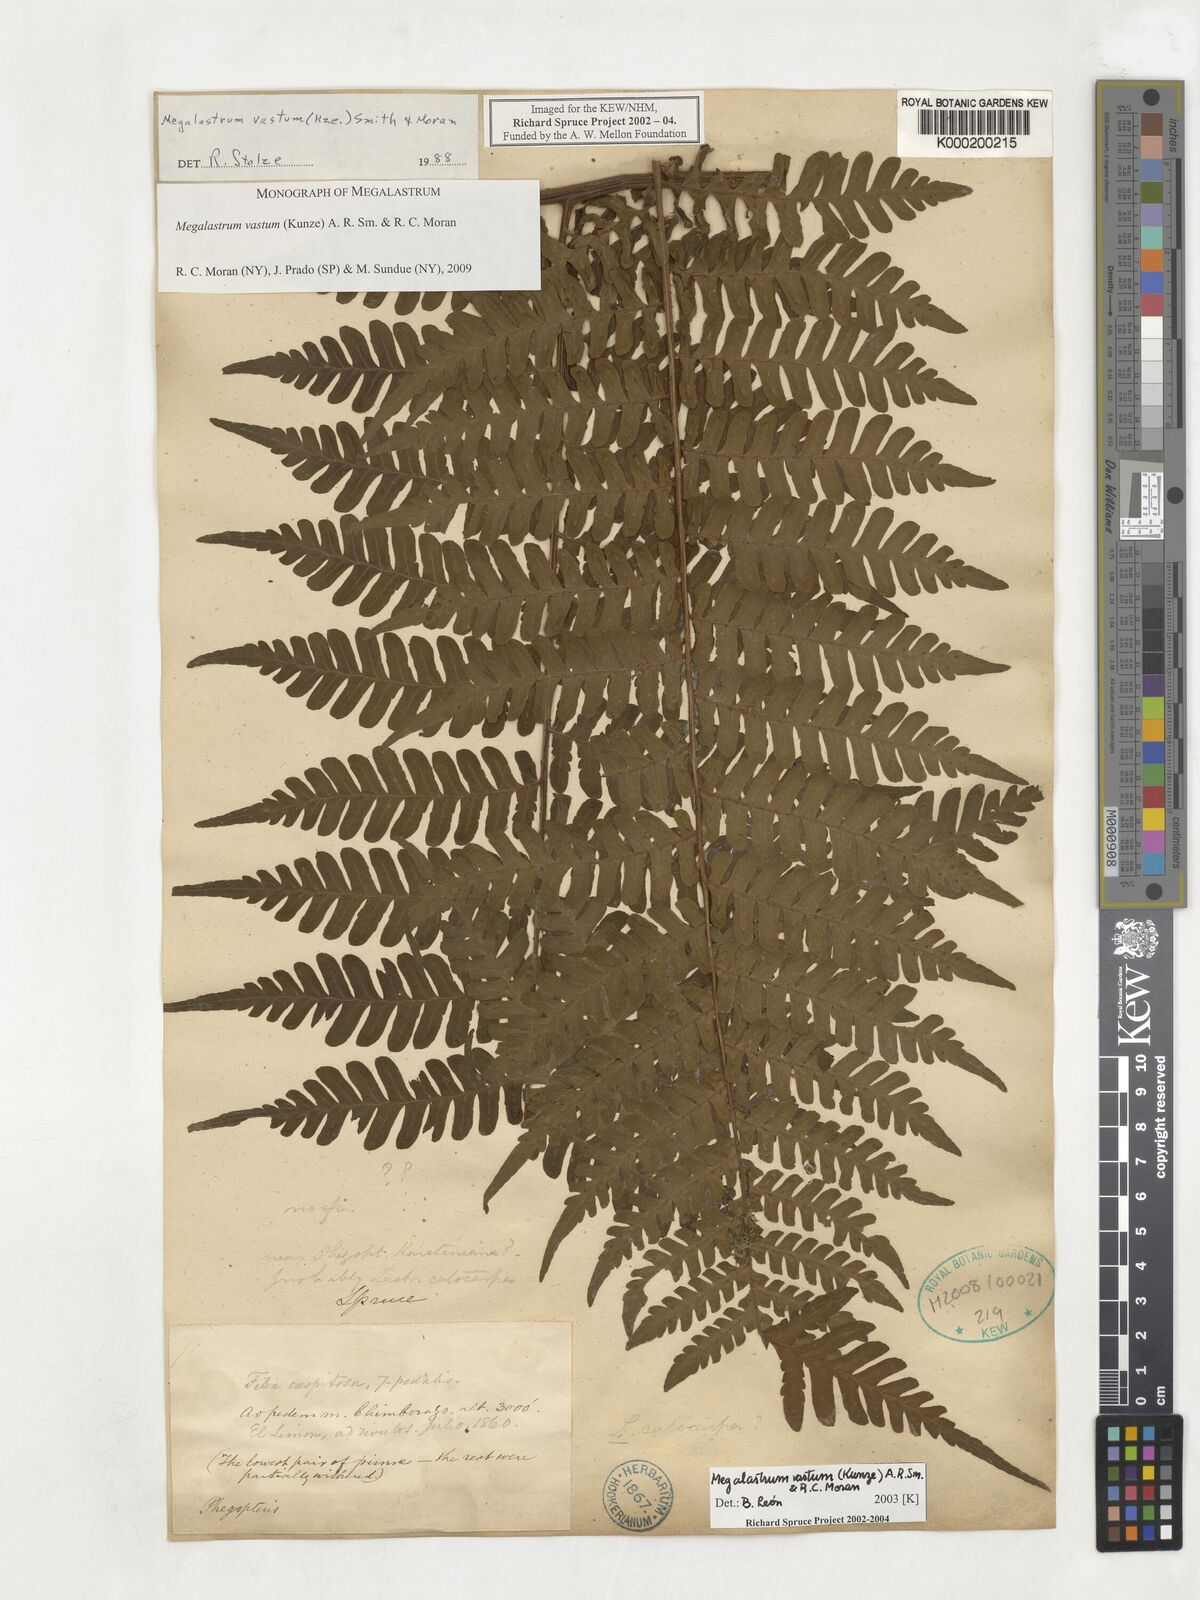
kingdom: Plantae
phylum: Tracheophyta
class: Polypodiopsida
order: Polypodiales
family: Dryopteridaceae
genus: Megalastrum
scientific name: Megalastrum vastum
